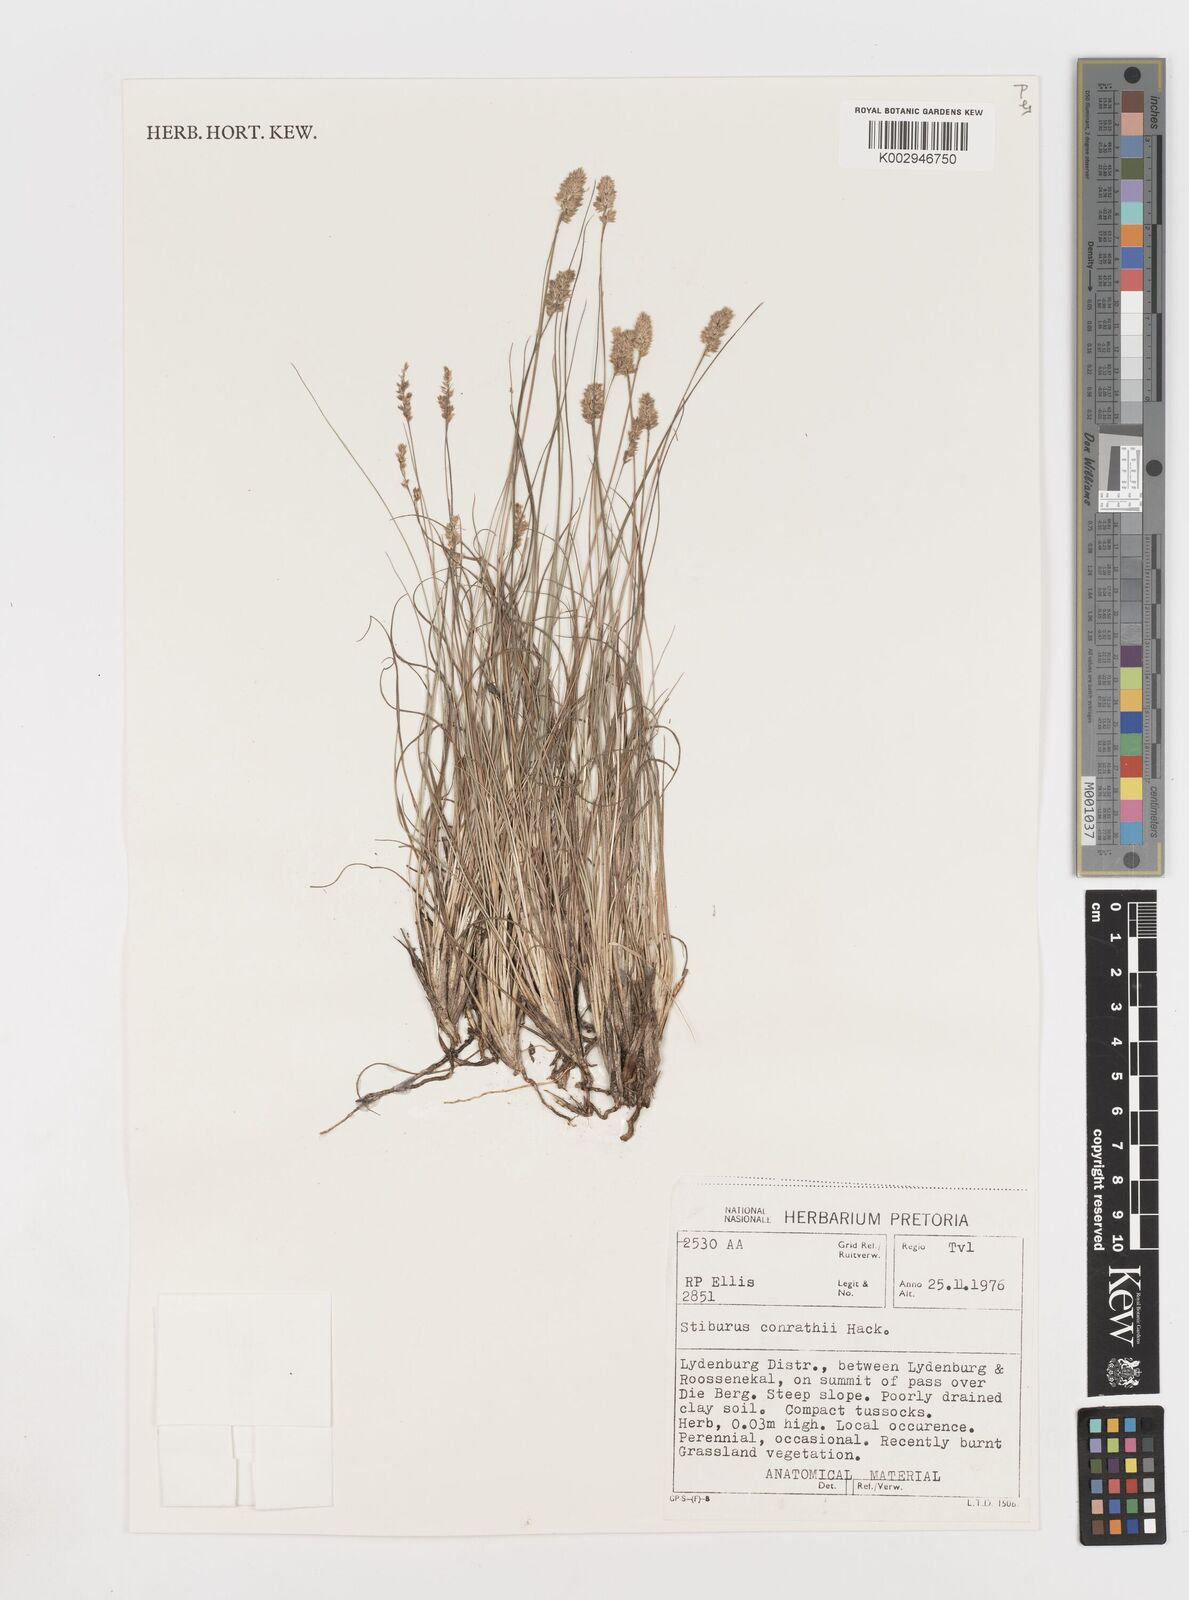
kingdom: Plantae
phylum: Tracheophyta
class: Liliopsida
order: Poales
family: Poaceae
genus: Stiburus
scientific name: Stiburus conrathii
